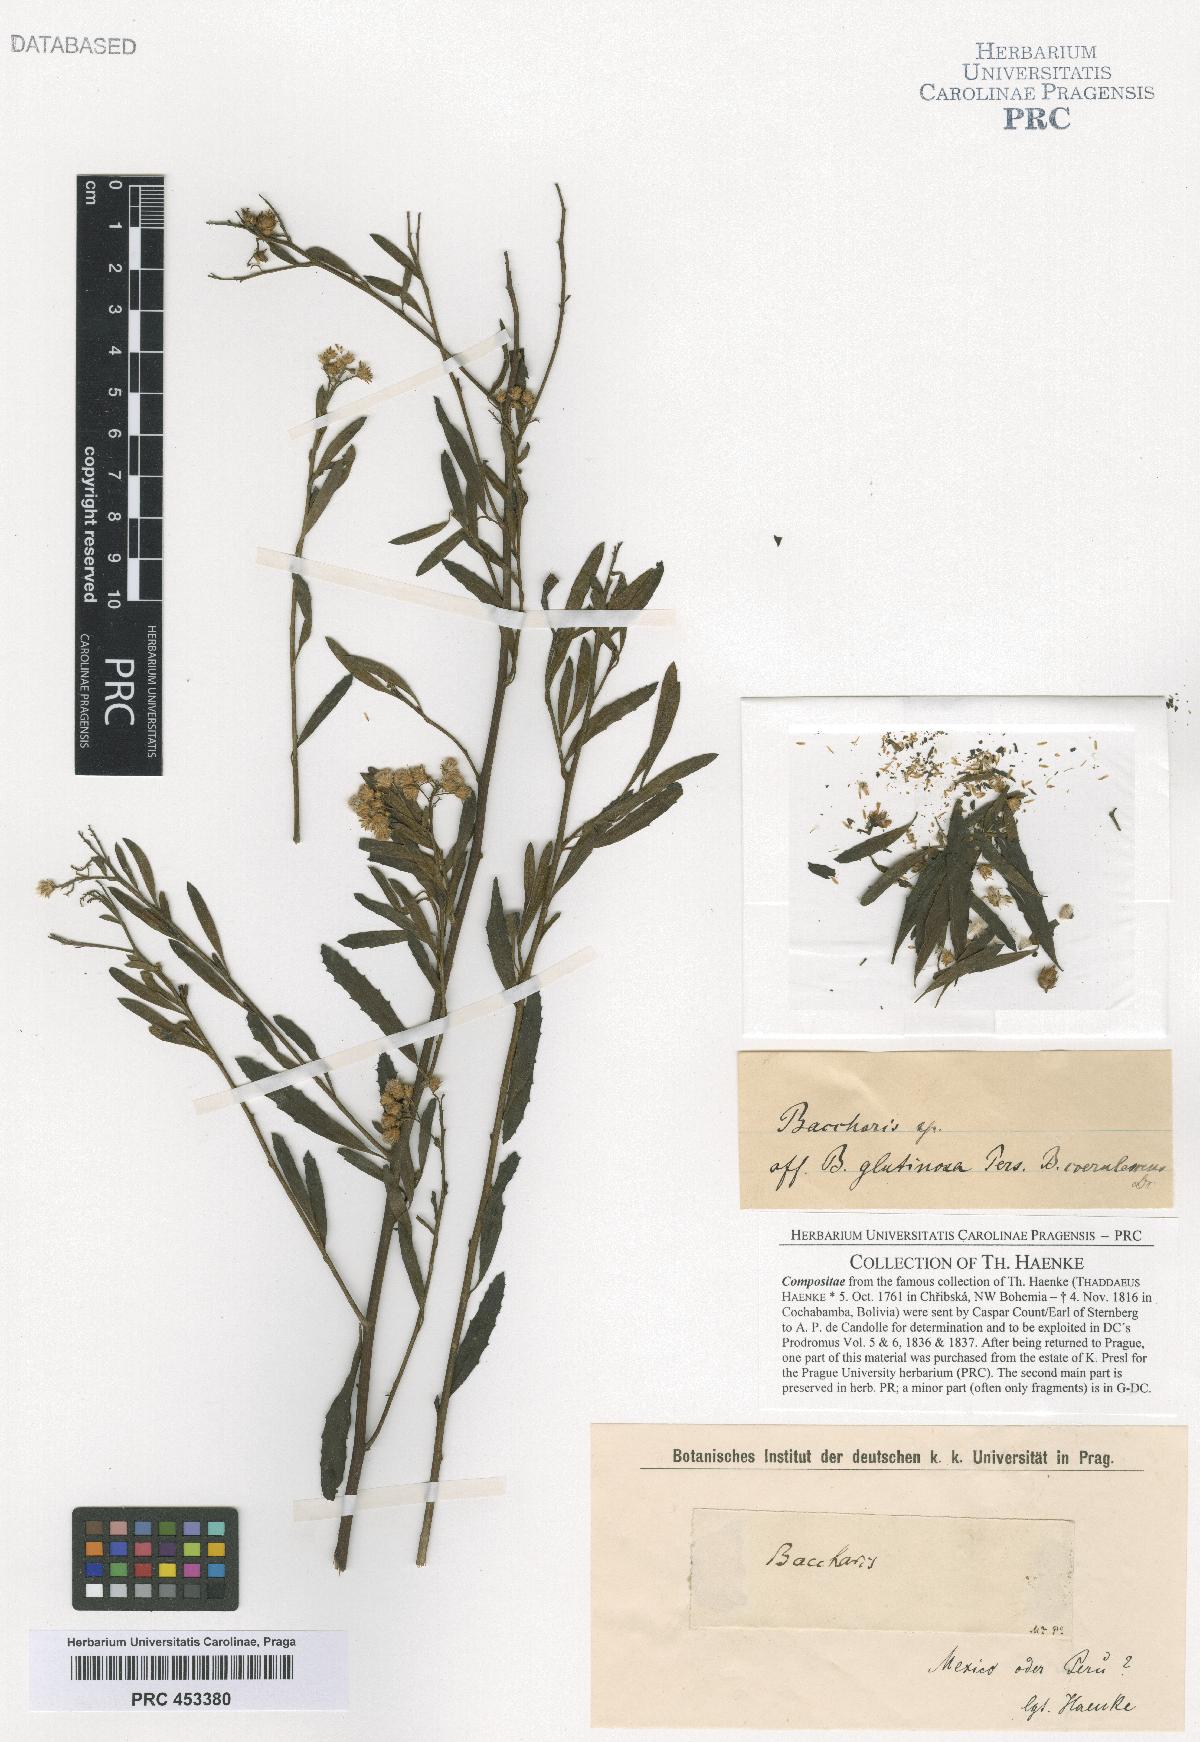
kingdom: Plantae
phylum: Tracheophyta
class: Magnoliopsida
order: Asterales
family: Asteraceae
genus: Baccharis
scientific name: Baccharis
